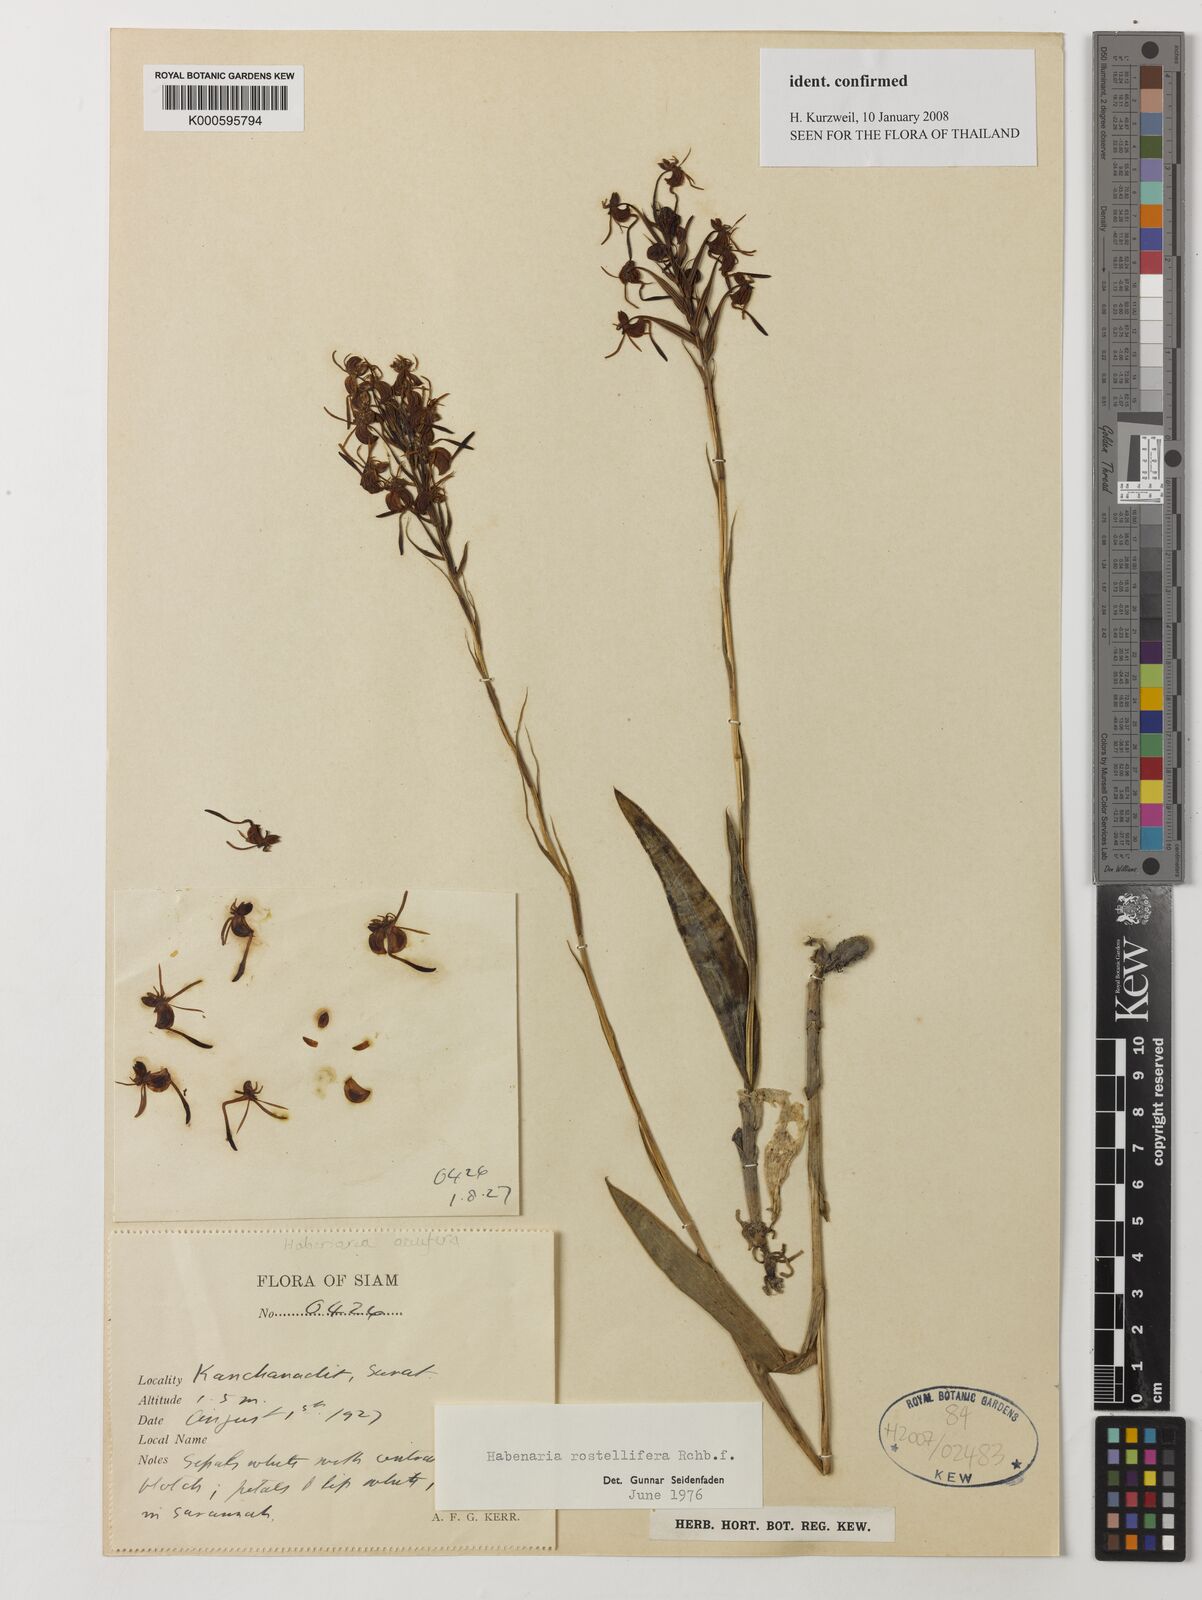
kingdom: Plantae
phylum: Tracheophyta
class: Liliopsida
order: Asparagales
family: Orchidaceae
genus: Habenaria
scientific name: Habenaria rostellifera
